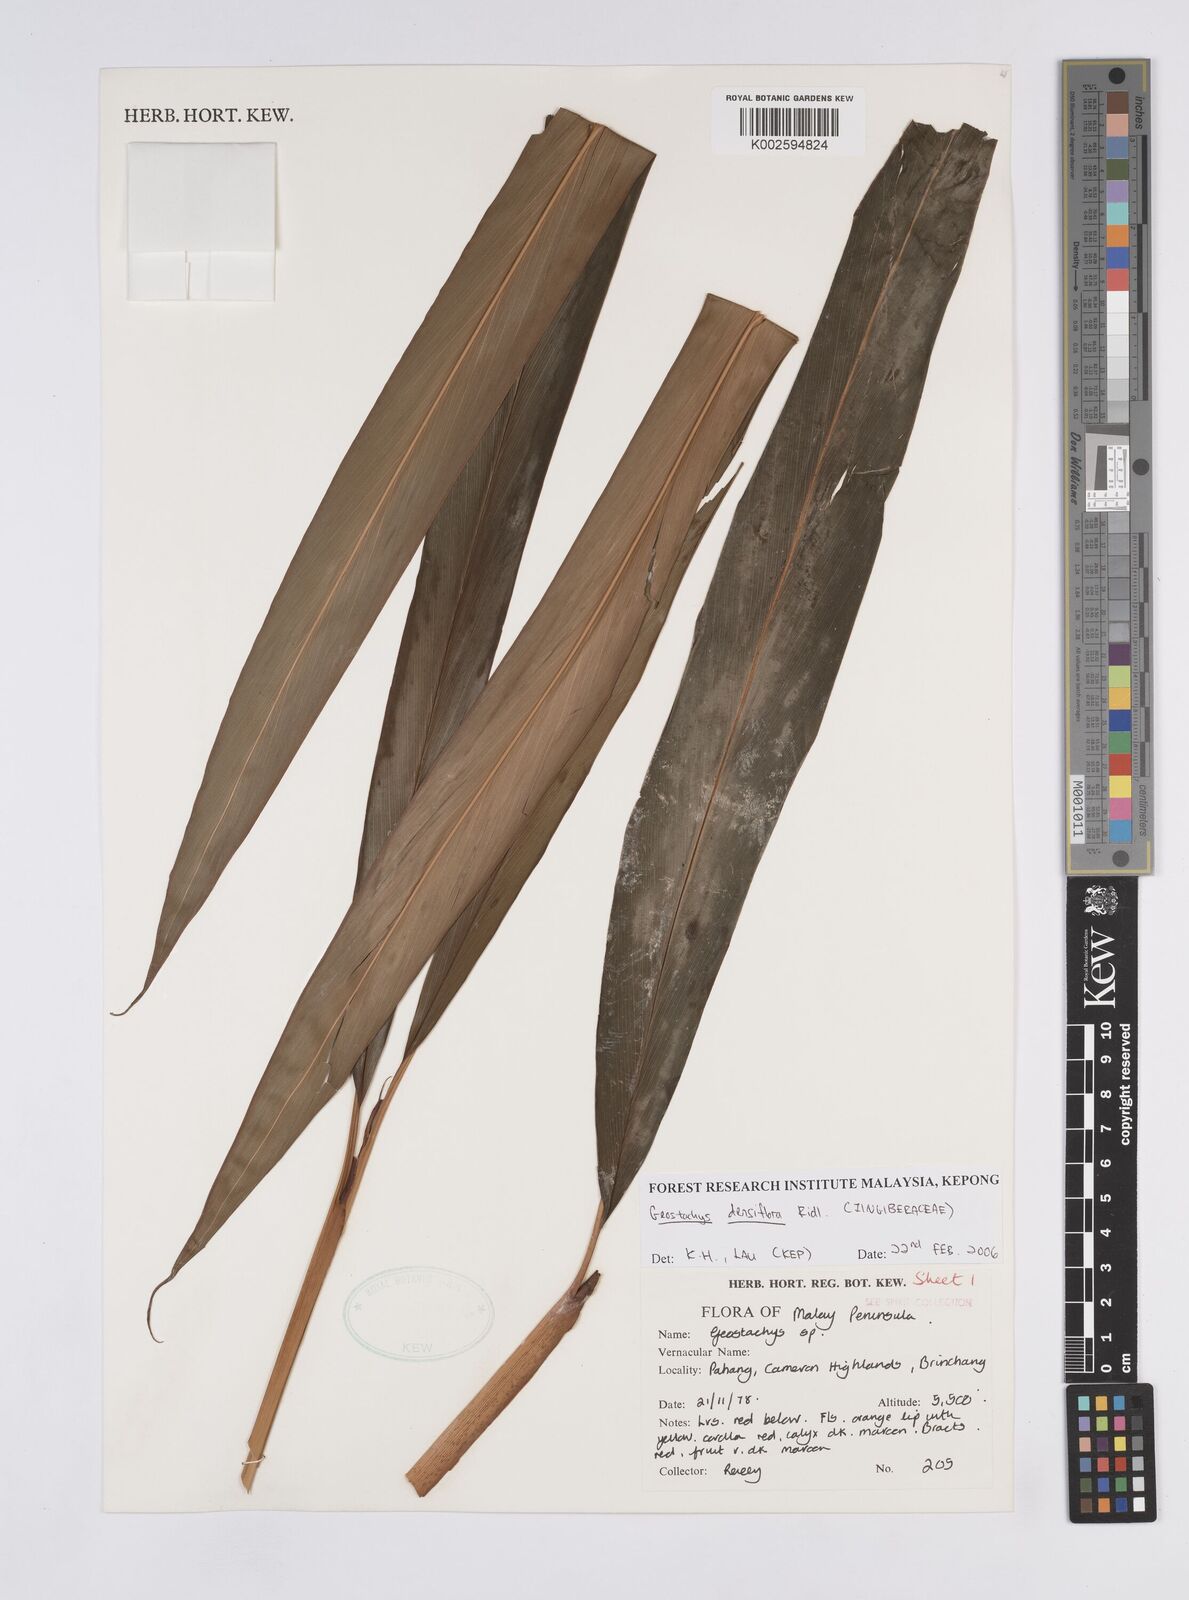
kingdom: Plantae
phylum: Tracheophyta
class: Liliopsida
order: Zingiberales
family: Zingiberaceae
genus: Geostachys
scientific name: Geostachys densiflora
